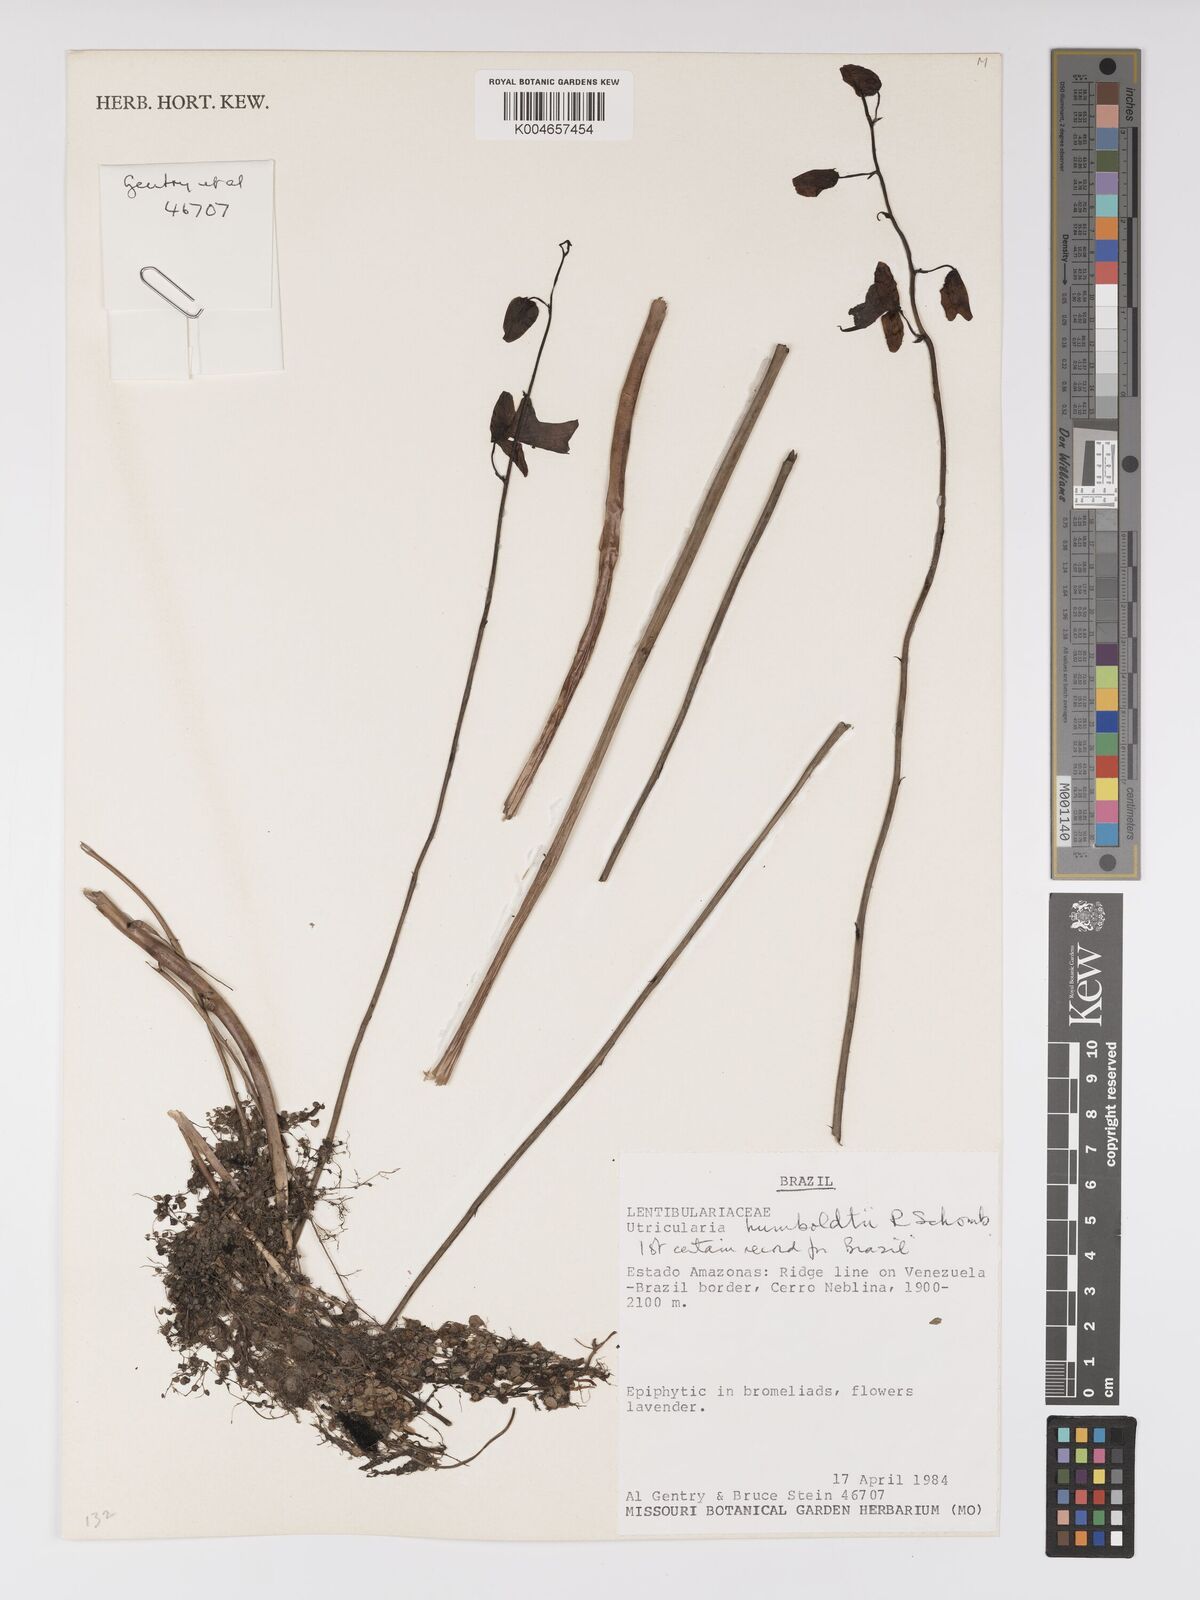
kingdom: Plantae
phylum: Tracheophyta
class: Magnoliopsida
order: Lamiales
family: Lentibulariaceae
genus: Utricularia
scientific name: Utricularia humboldtii
